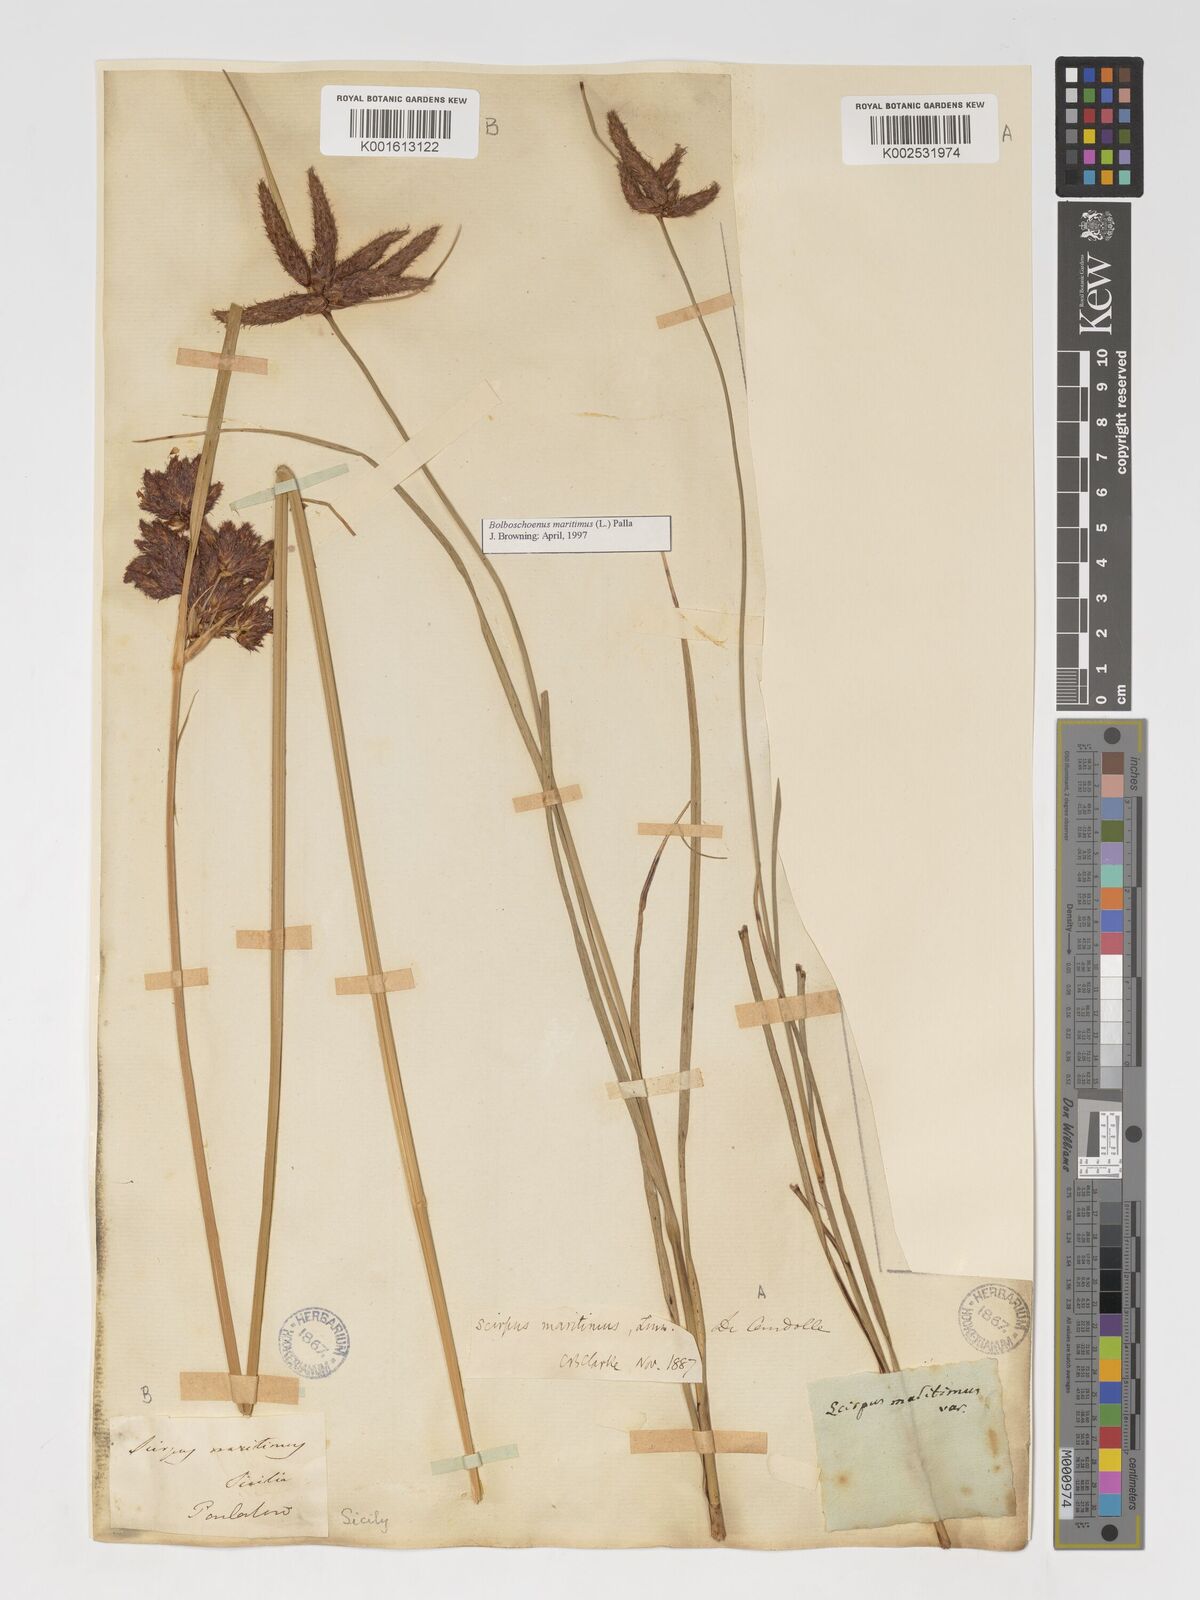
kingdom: Plantae
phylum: Tracheophyta
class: Liliopsida
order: Poales
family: Cyperaceae
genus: Bolboschoenus
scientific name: Bolboschoenus maritimus
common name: Sea club-rush
